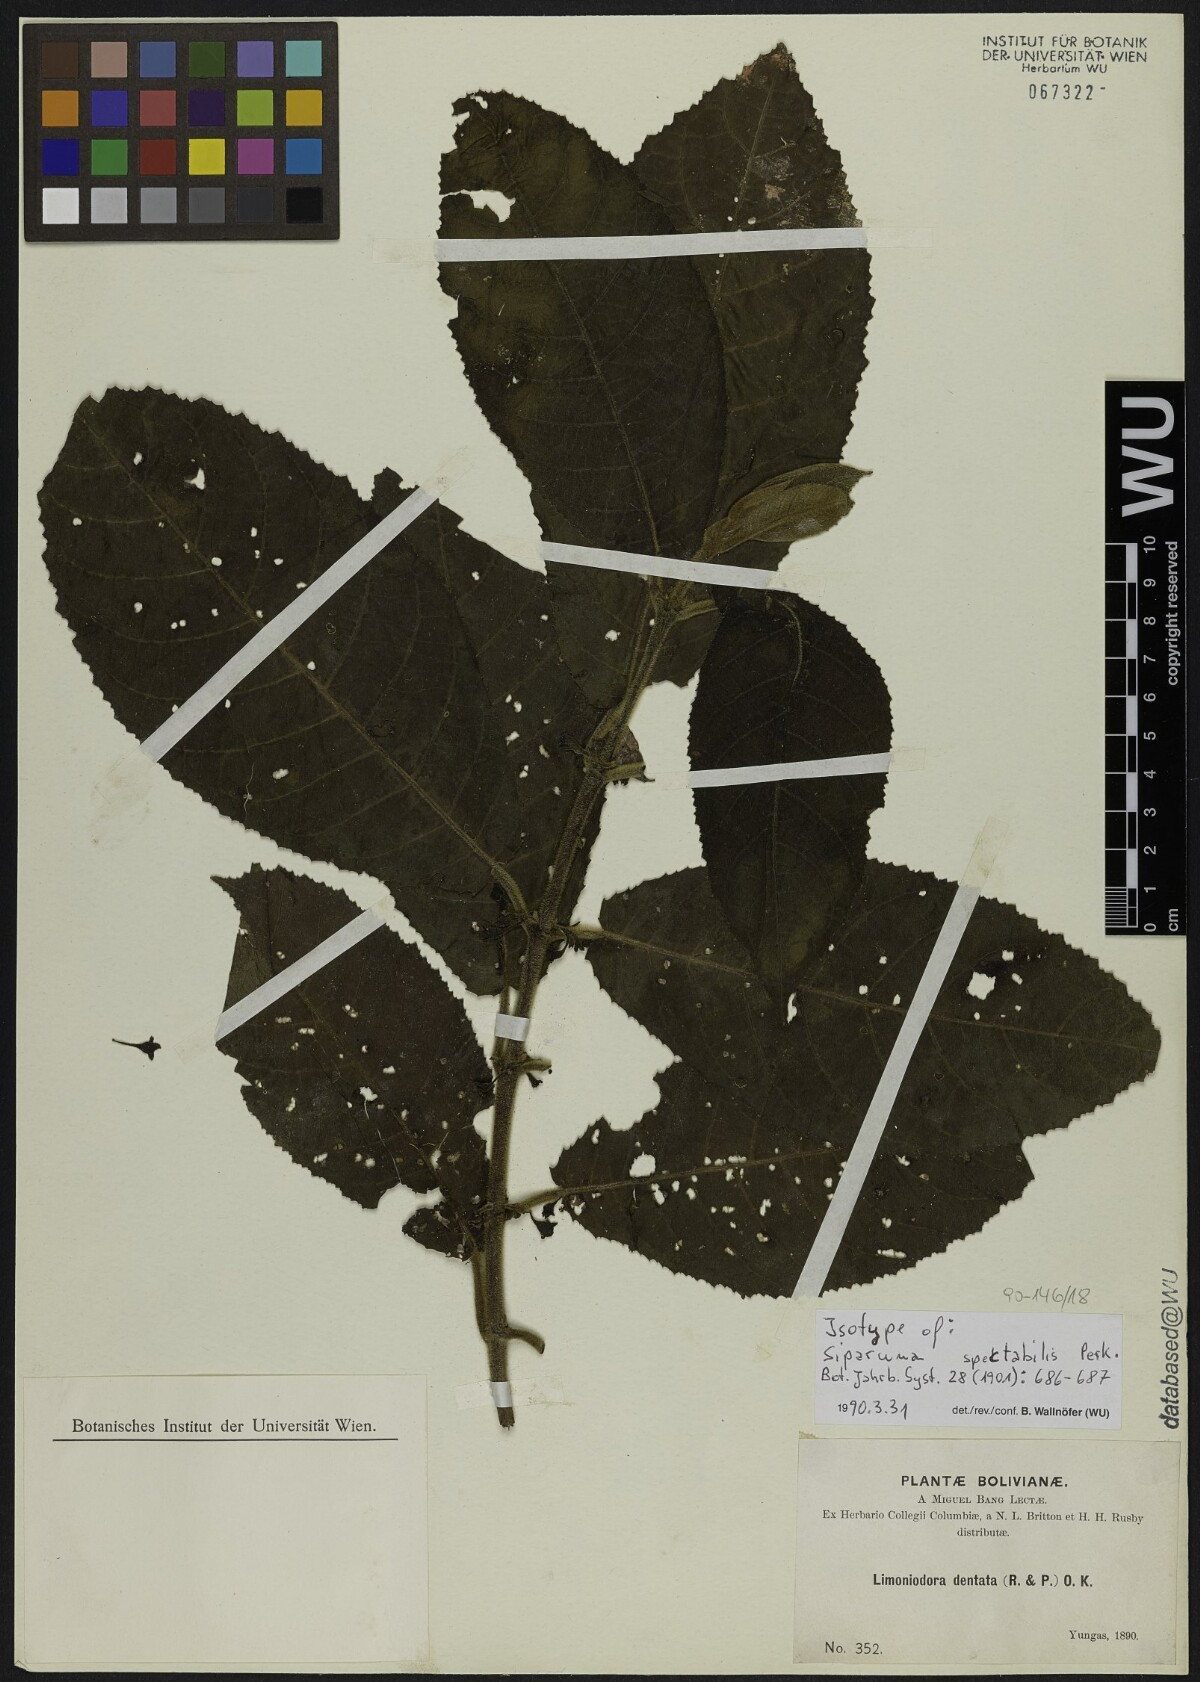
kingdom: Plantae
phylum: Tracheophyta
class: Magnoliopsida
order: Laurales
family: Siparunaceae
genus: Siparuna
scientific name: Siparuna aspera
